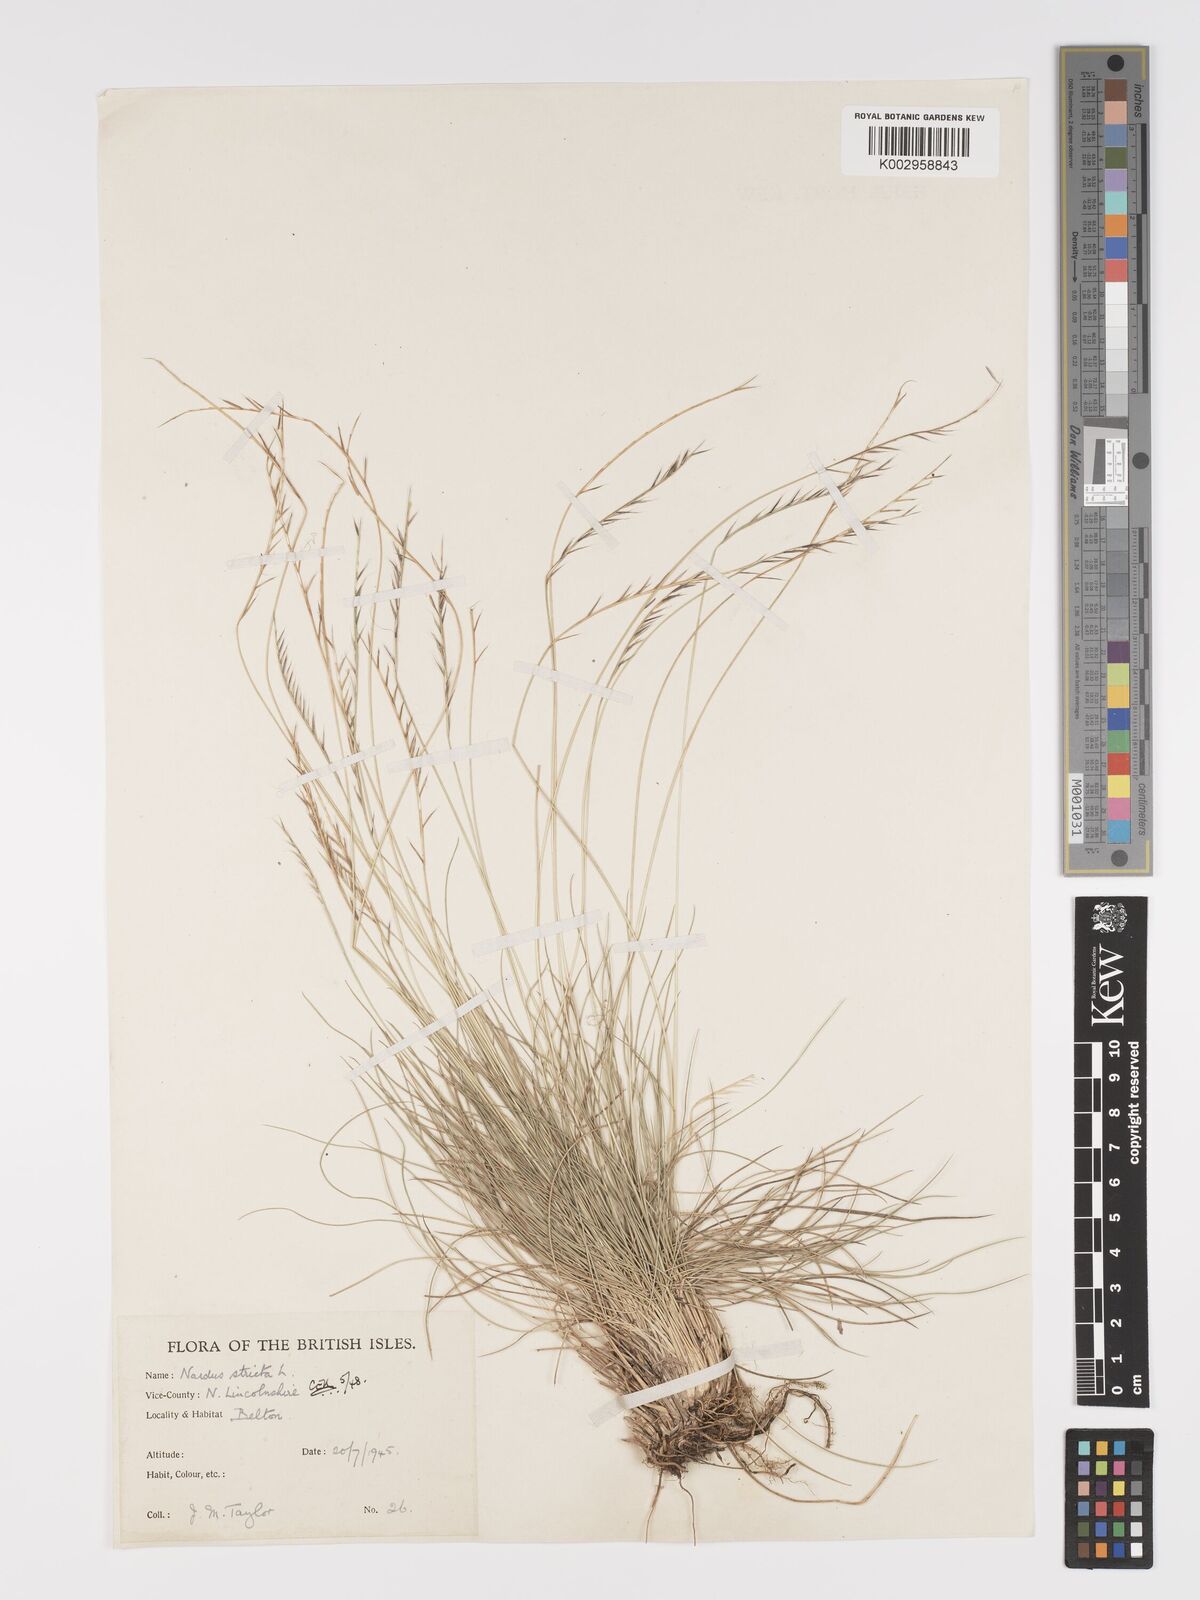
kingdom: Plantae
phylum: Tracheophyta
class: Liliopsida
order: Poales
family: Poaceae
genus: Nardus
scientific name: Nardus stricta
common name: Mat-grass
